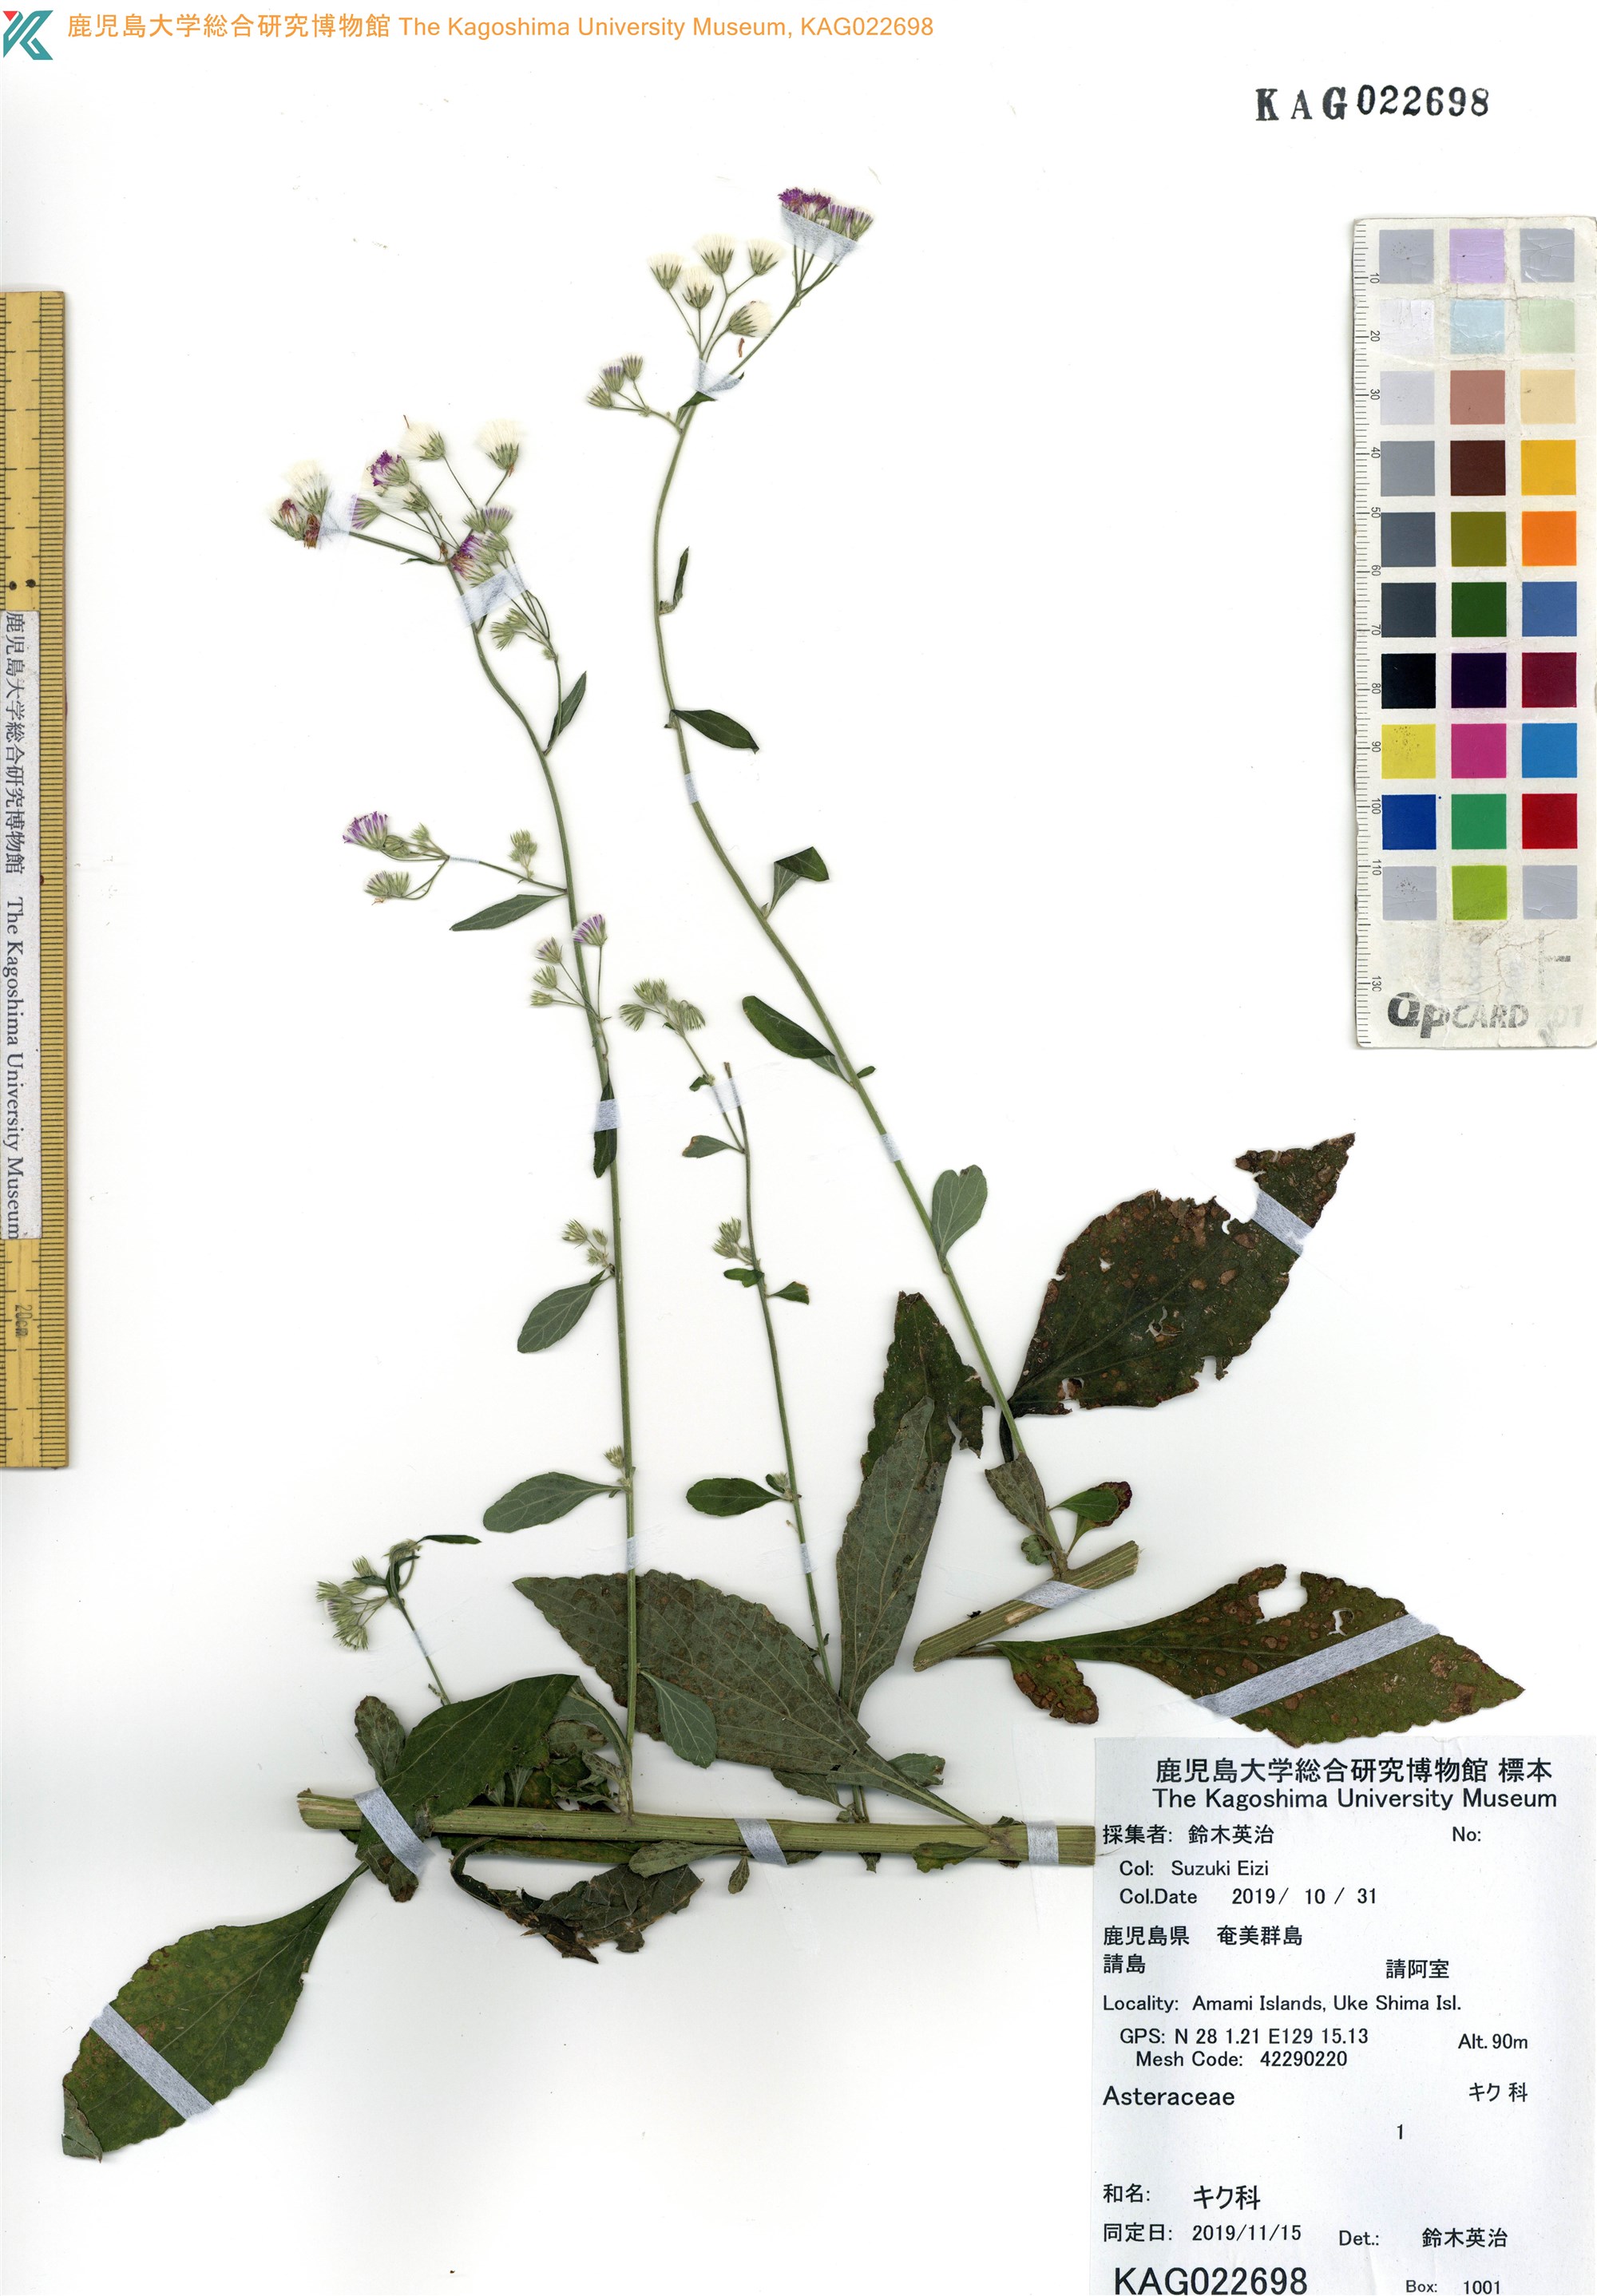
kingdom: Plantae
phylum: Tracheophyta
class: Magnoliopsida
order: Asterales
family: Asteraceae
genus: Cyanthillium
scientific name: Cyanthillium cinereum
